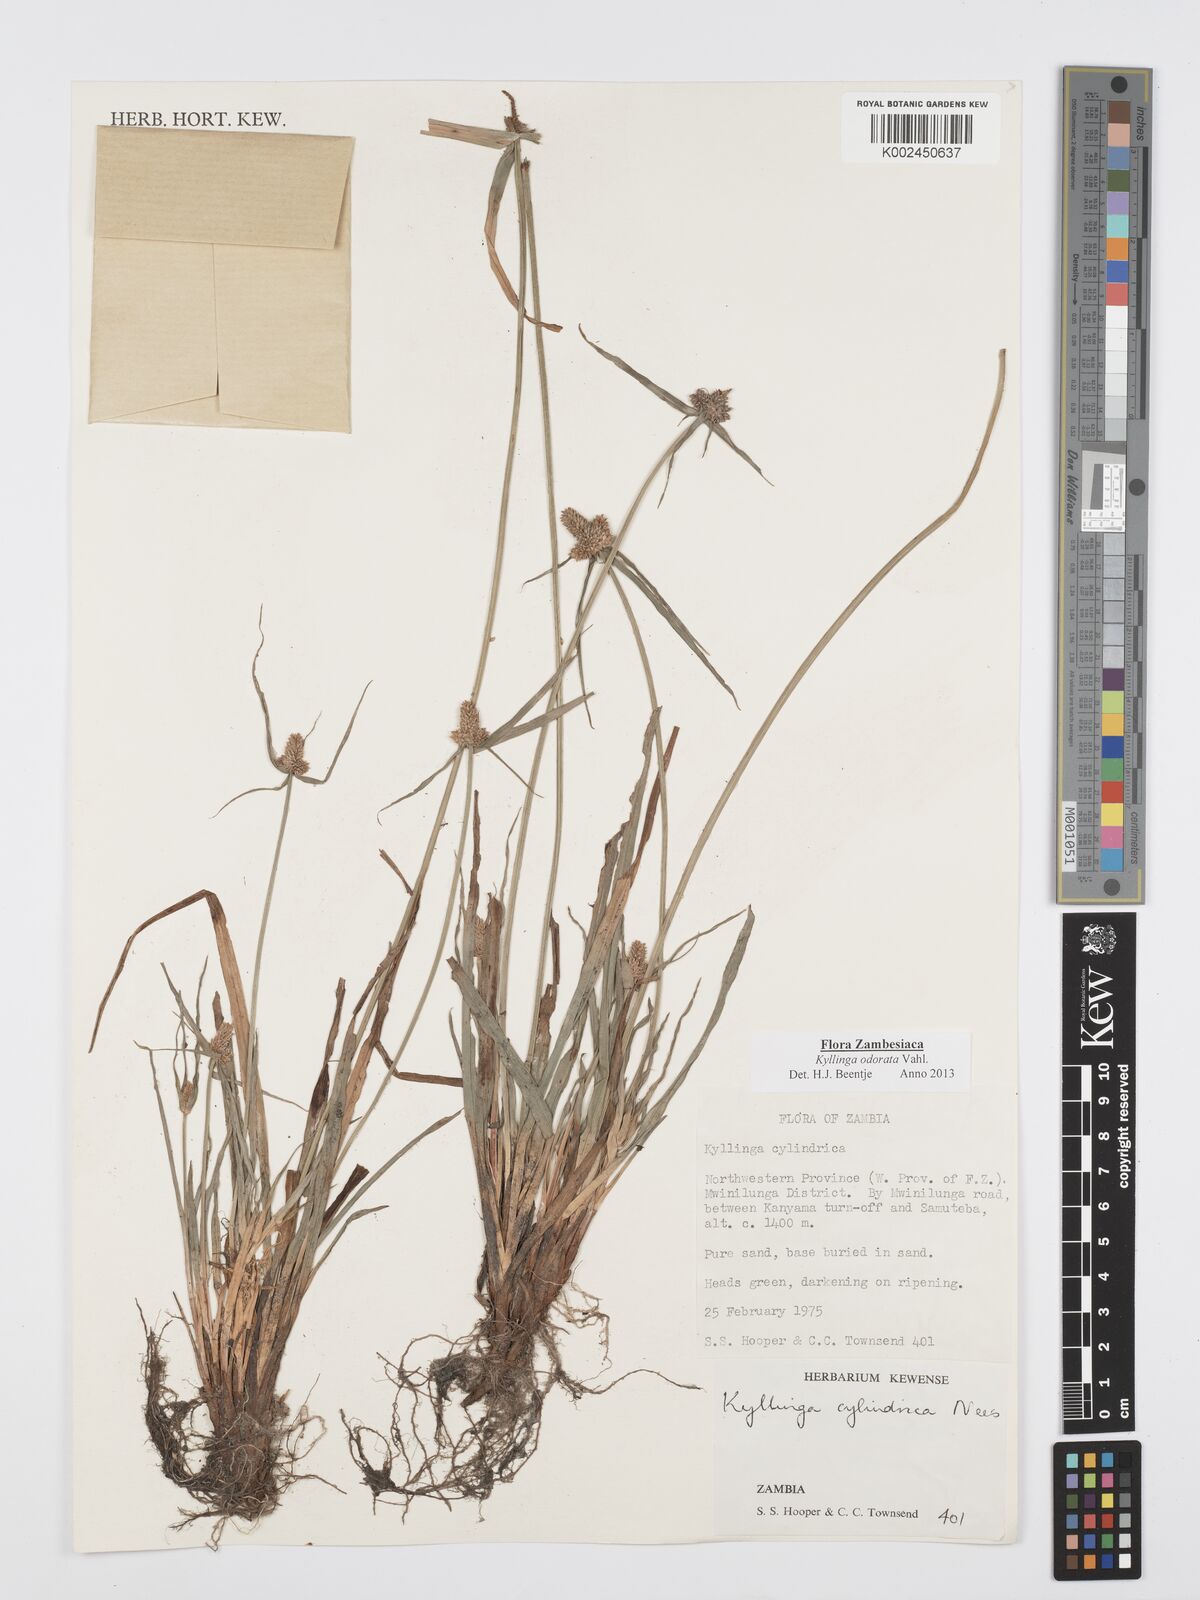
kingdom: Plantae
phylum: Tracheophyta
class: Liliopsida
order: Poales
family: Cyperaceae
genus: Cyperus
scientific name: Cyperus
